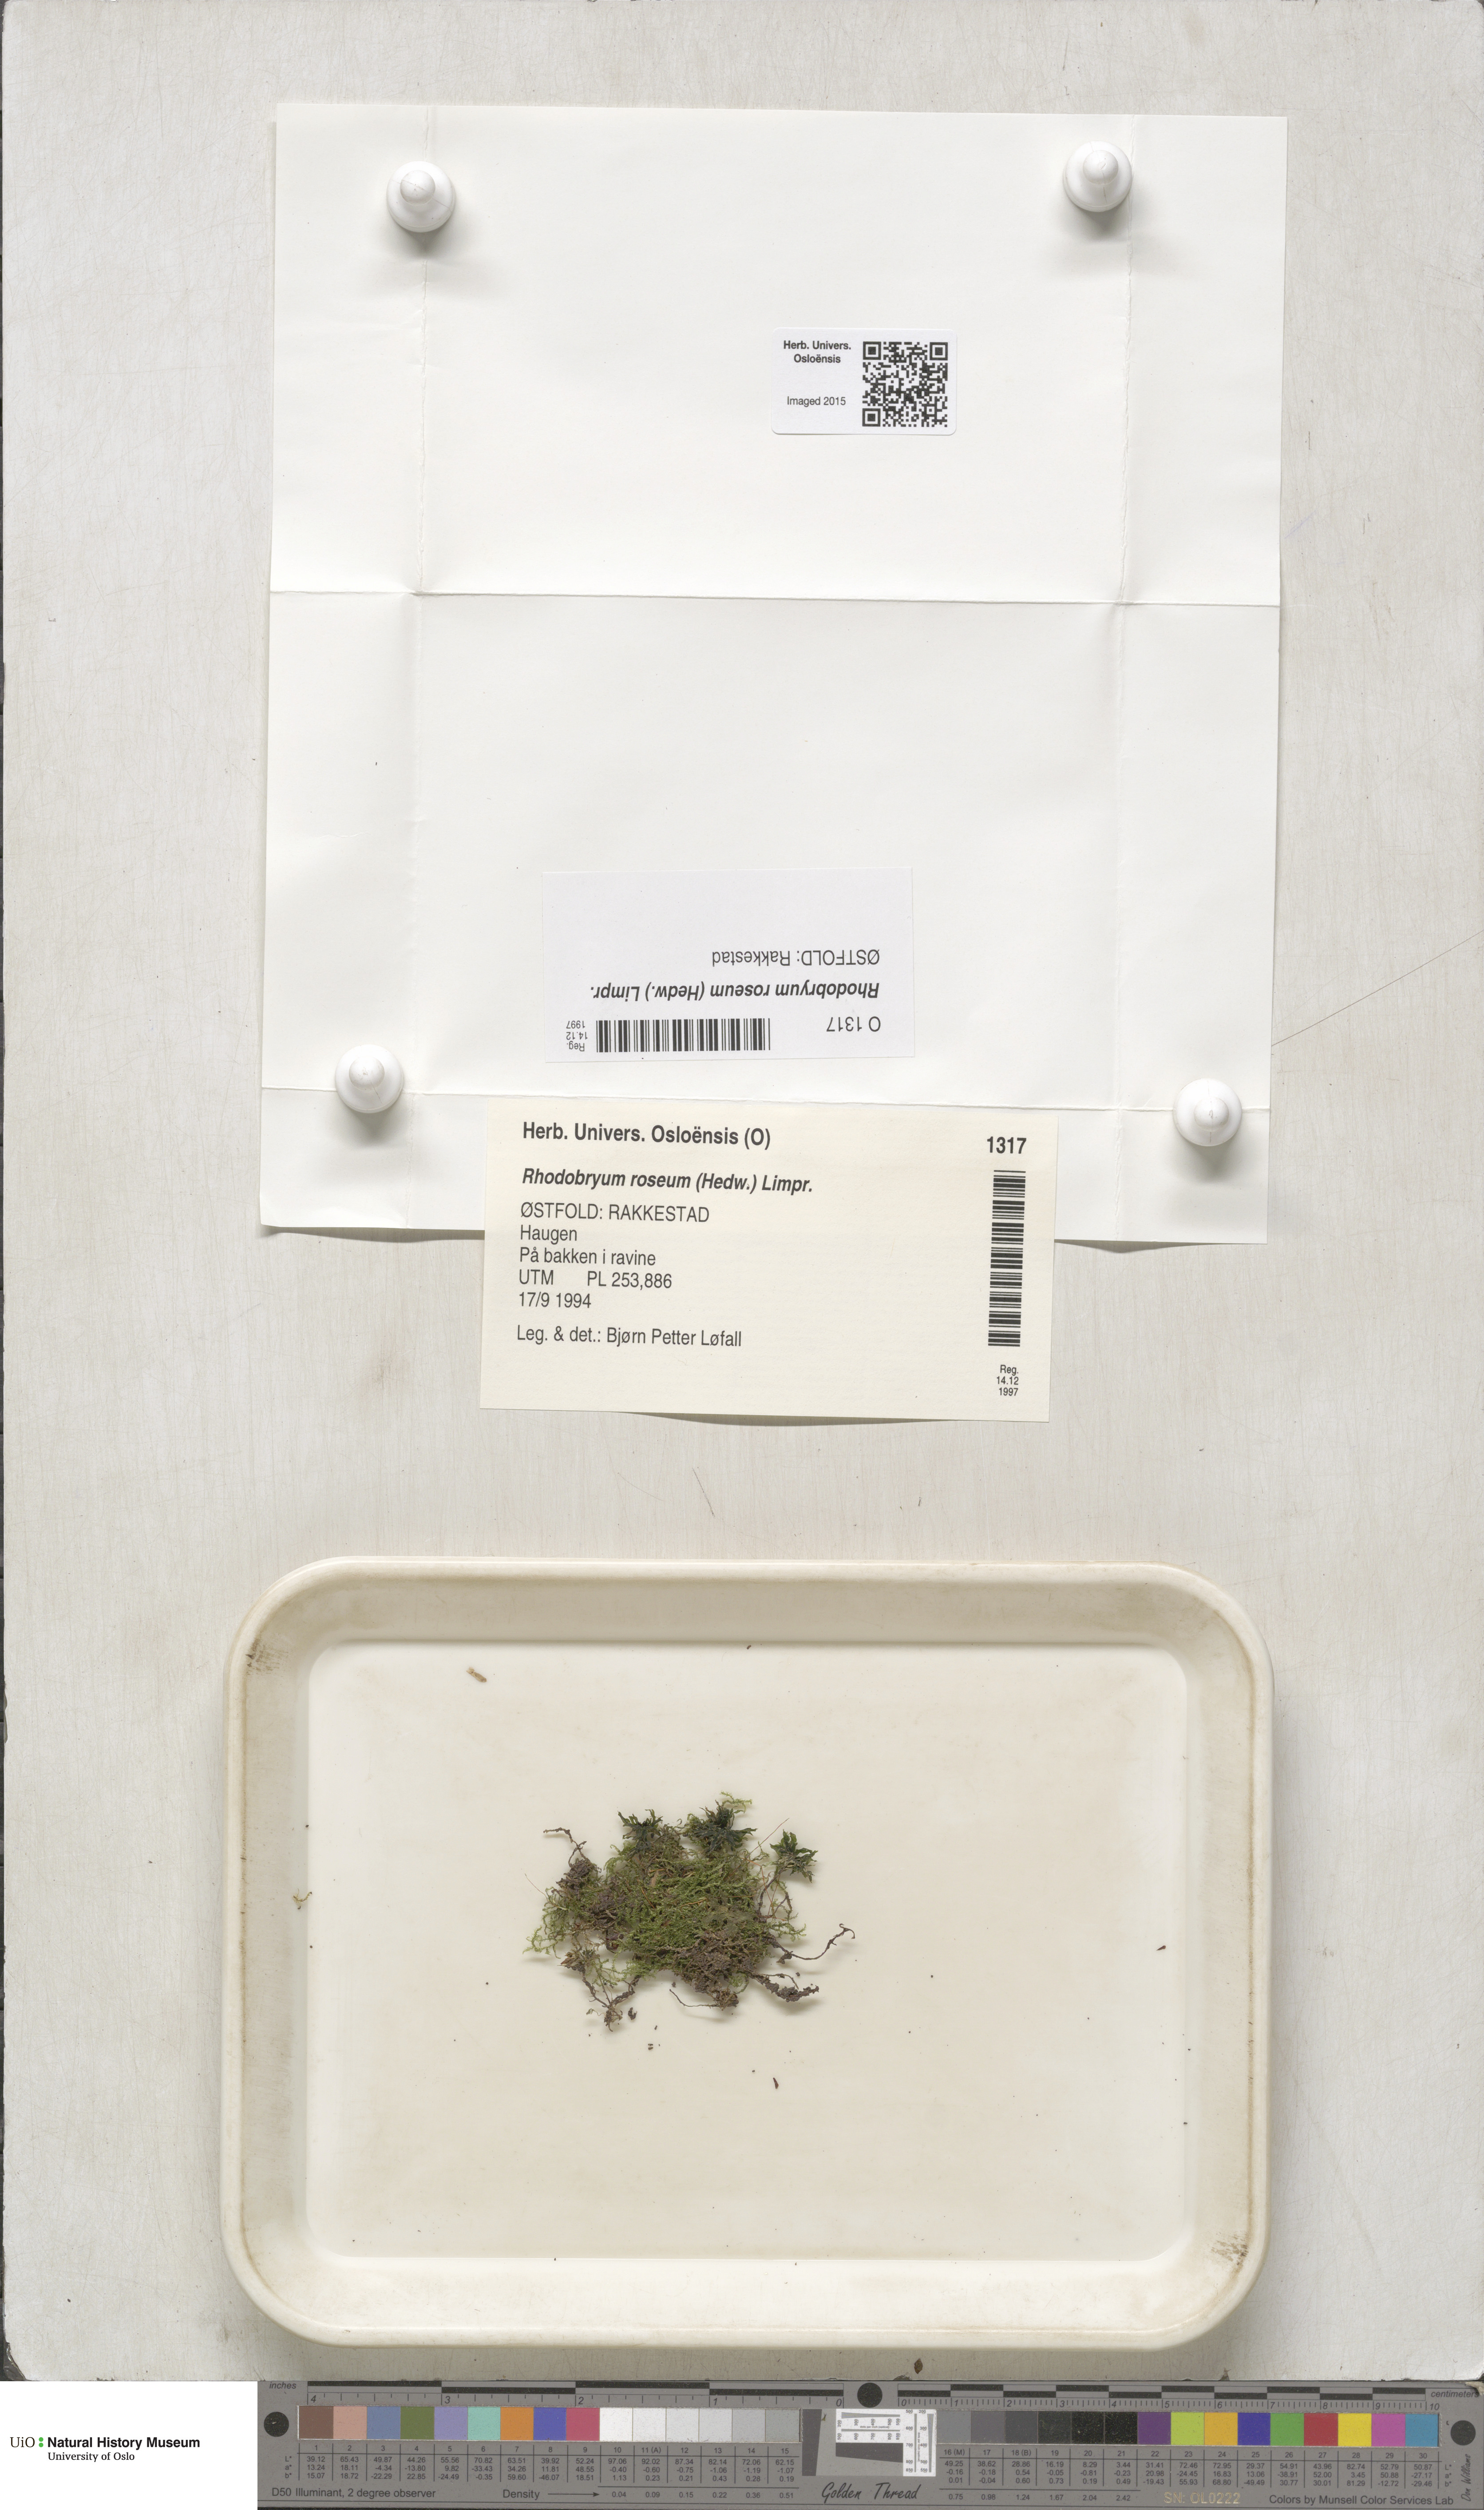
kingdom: Plantae
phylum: Bryophyta
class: Bryopsida
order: Bryales
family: Bryaceae
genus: Rhodobryum
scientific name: Rhodobryum roseum
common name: Rose-moss
